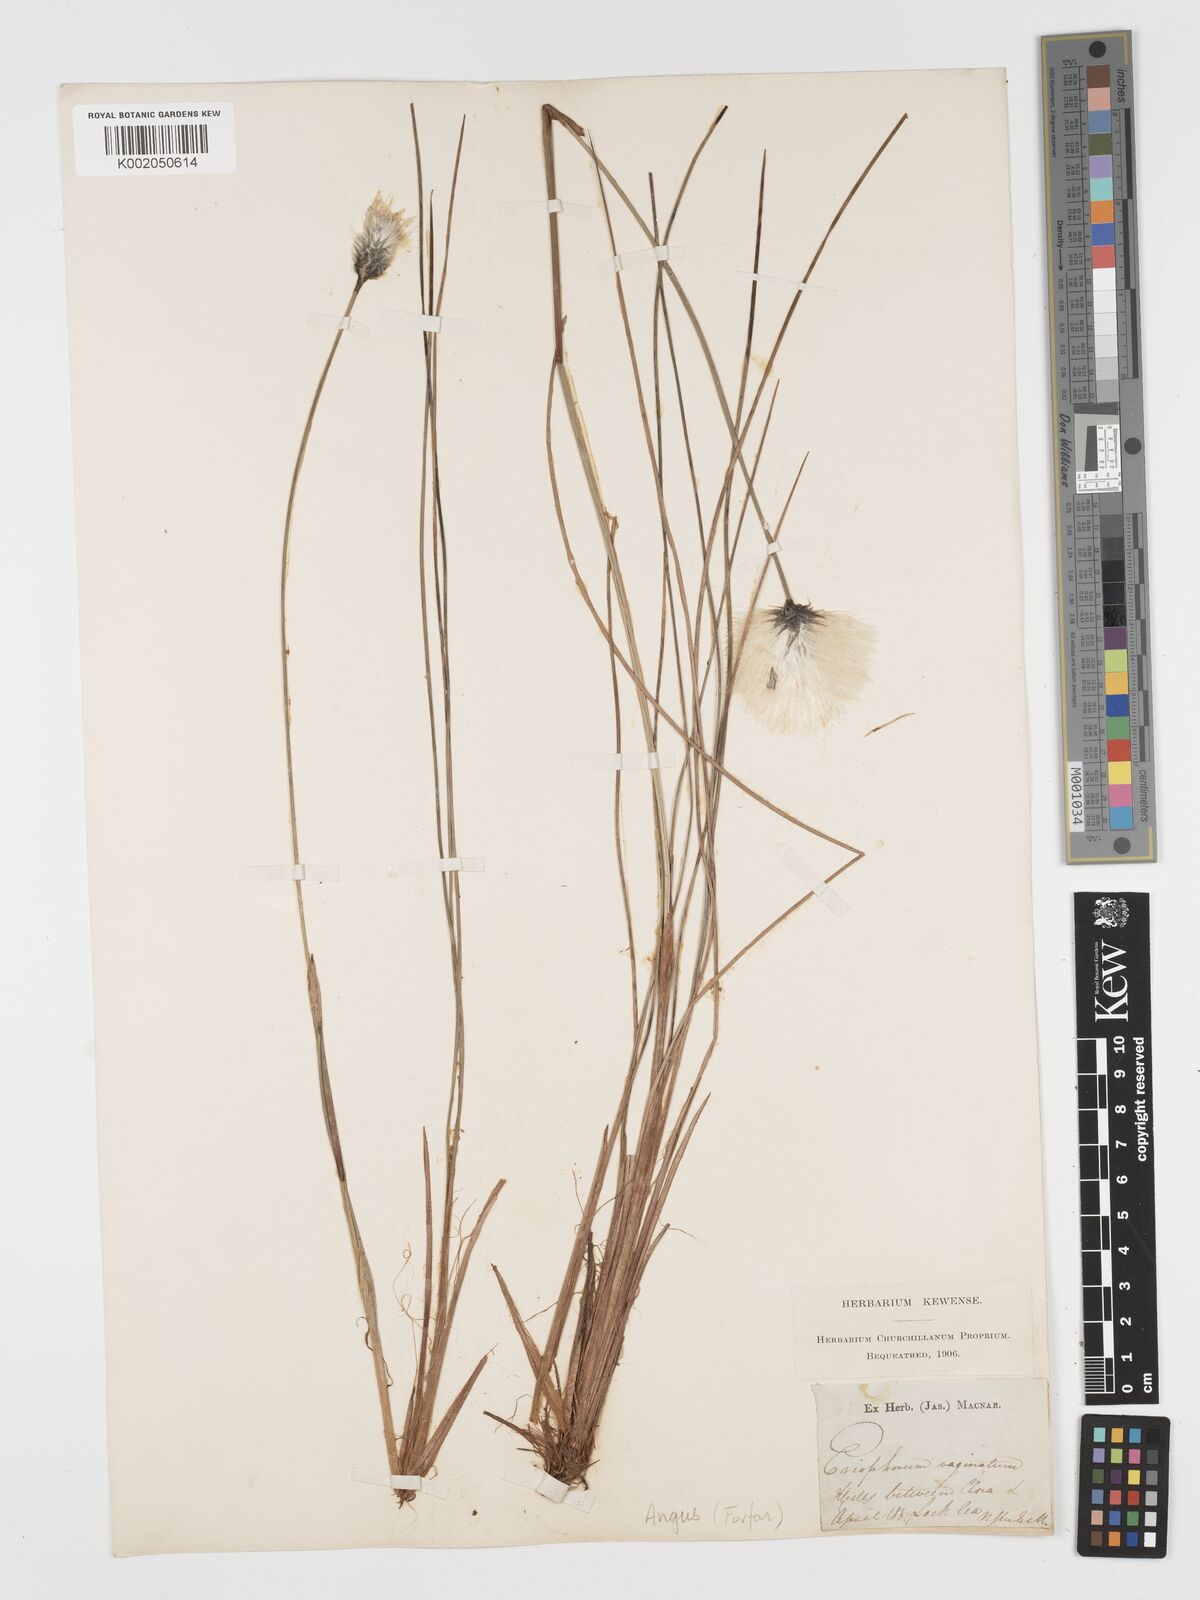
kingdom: Plantae
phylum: Tracheophyta
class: Liliopsida
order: Poales
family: Cyperaceae
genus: Eriophorum
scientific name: Eriophorum vaginatum
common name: Hare's-tail cottongrass
